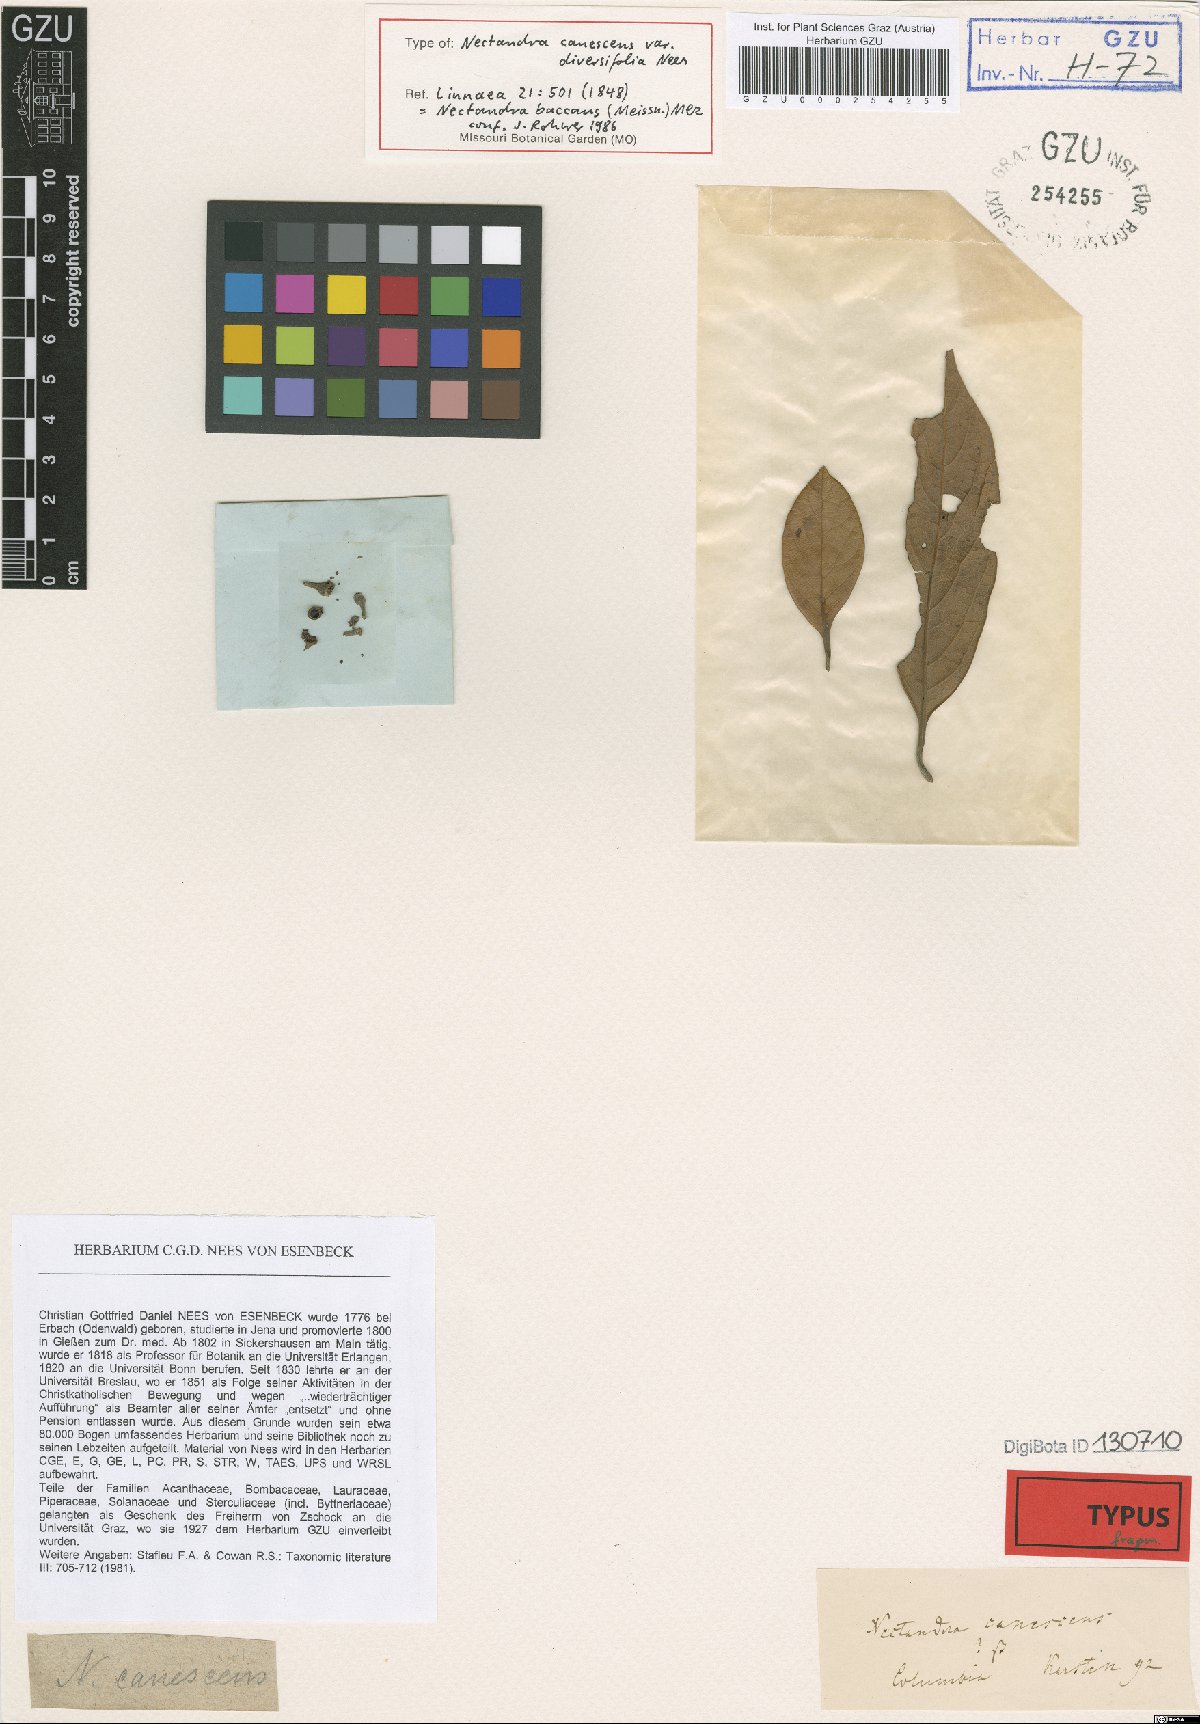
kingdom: Plantae
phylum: Tracheophyta
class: Magnoliopsida
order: Laurales
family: Lauraceae
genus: Nectandra
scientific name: Nectandra baccans
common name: Berrylike nectandra
